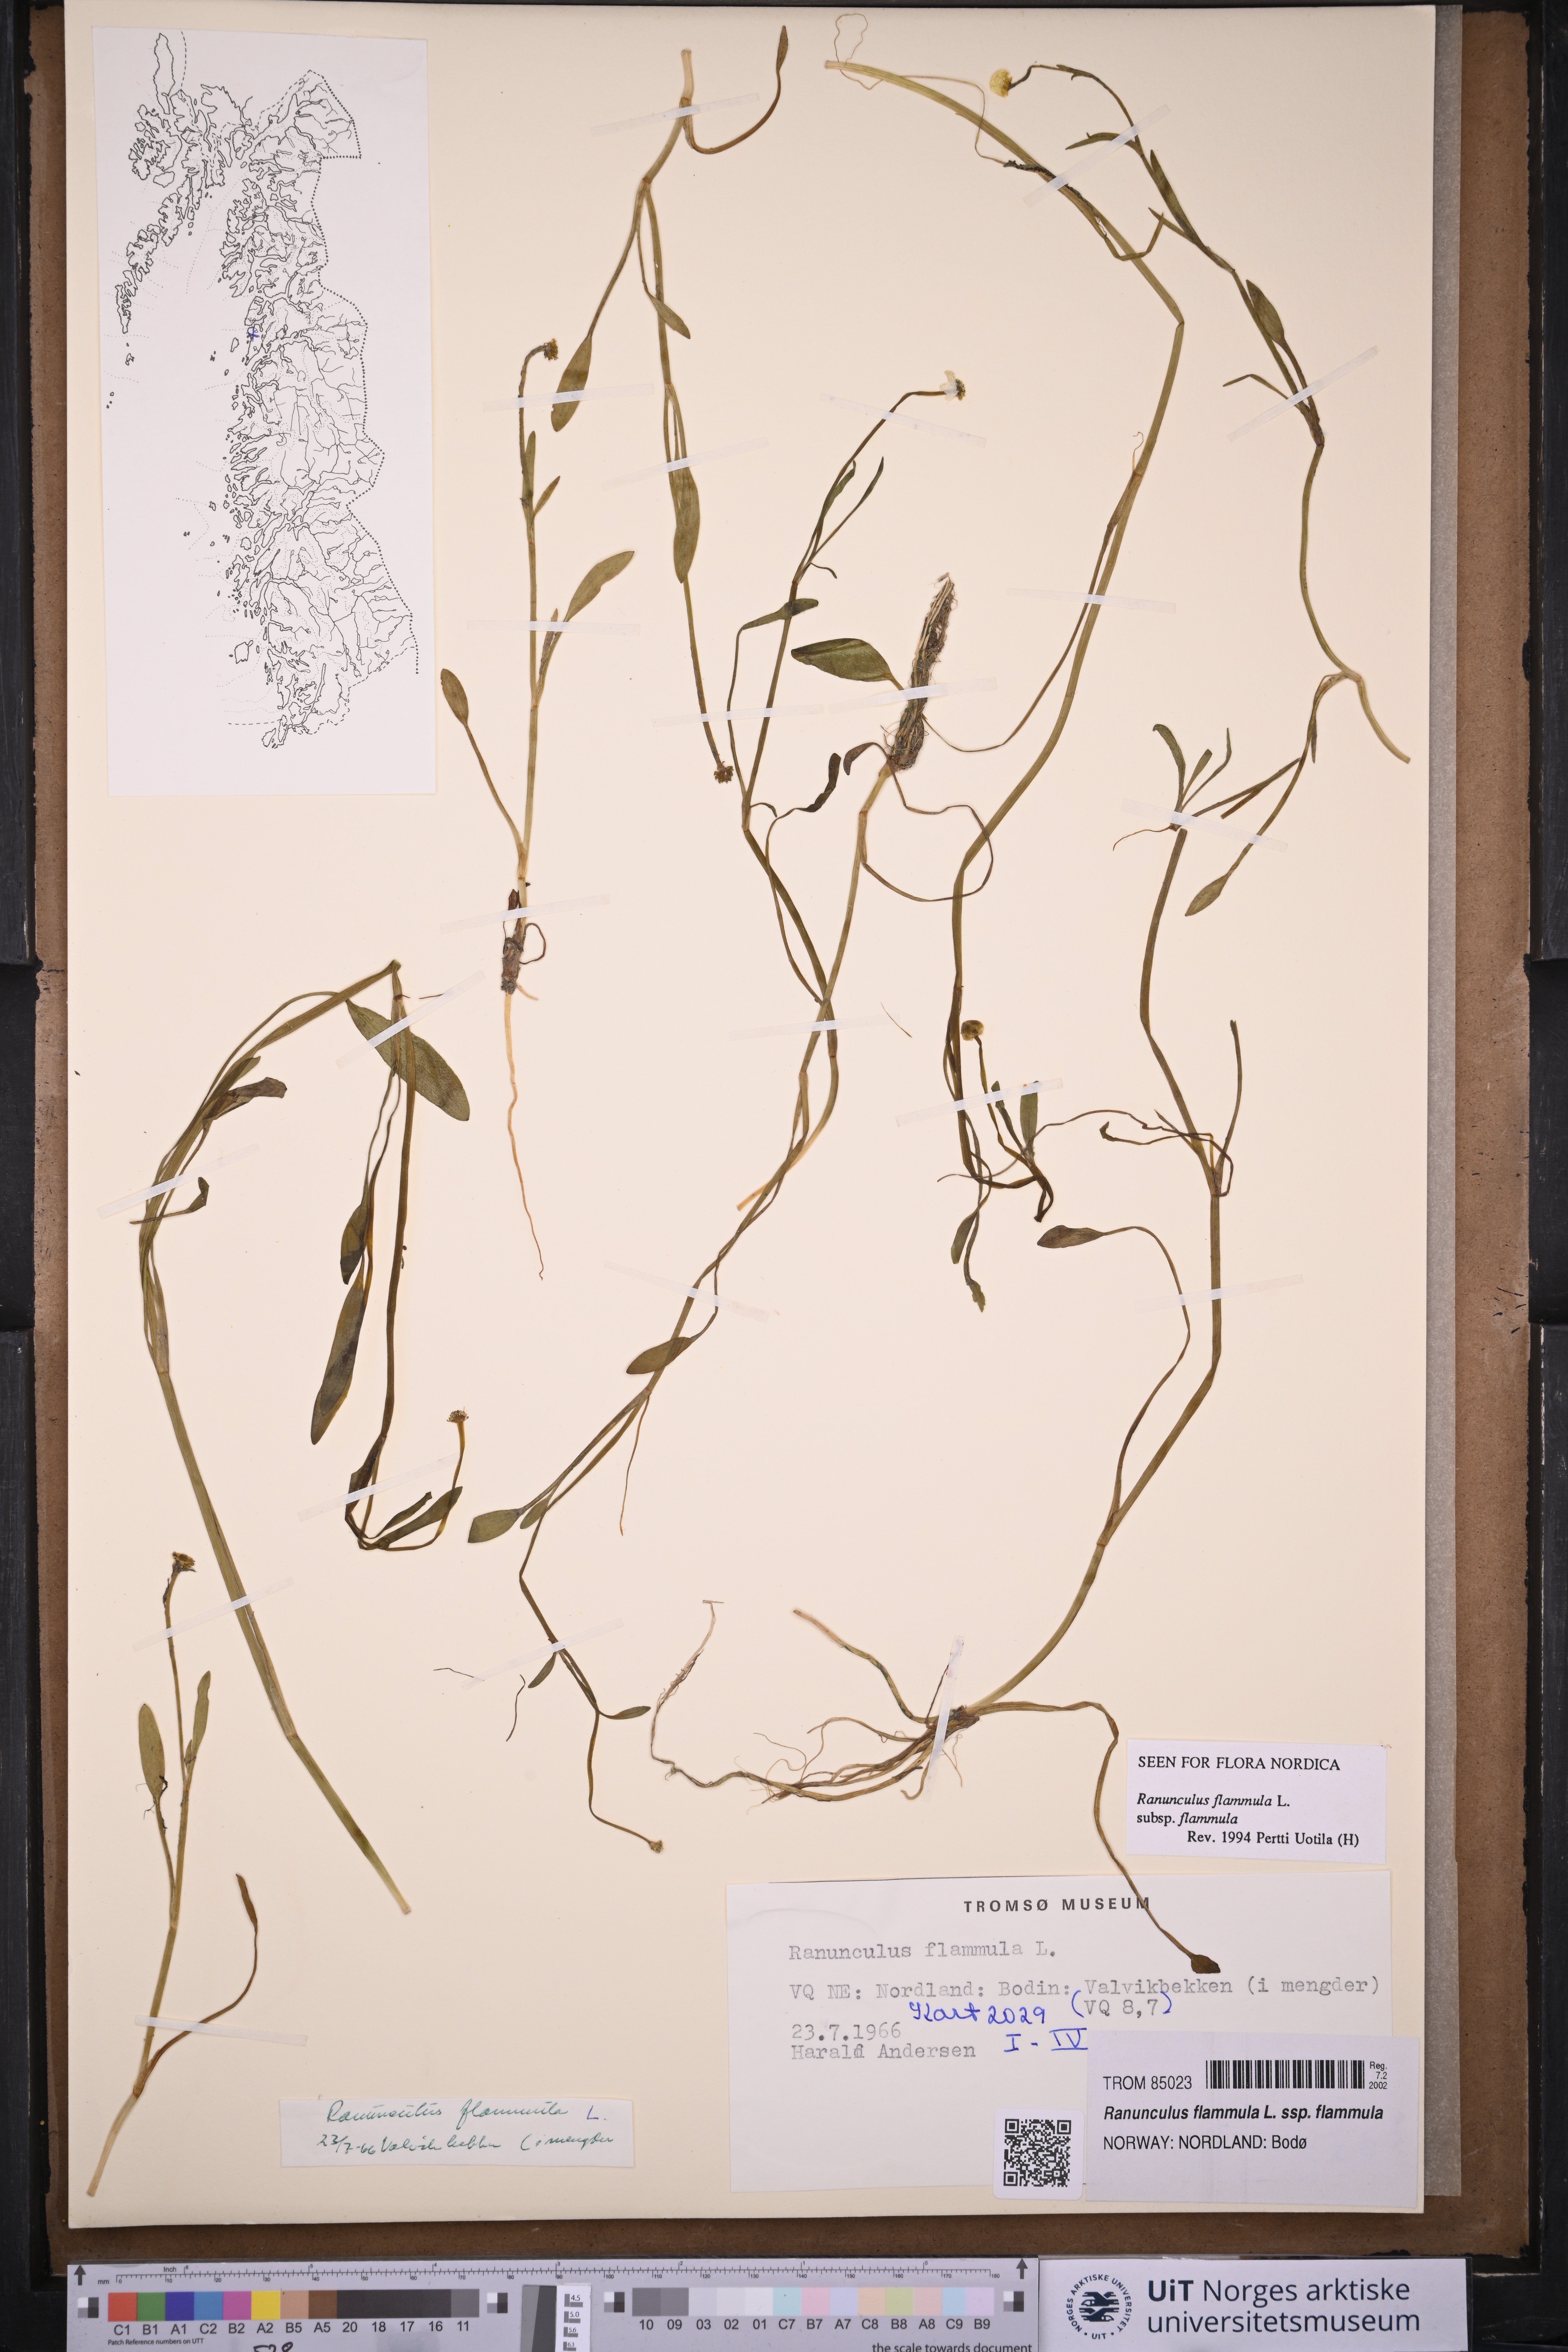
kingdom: Plantae
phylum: Tracheophyta
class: Magnoliopsida
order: Ranunculales
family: Ranunculaceae
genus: Ranunculus
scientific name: Ranunculus flammula
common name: Lesser spearwort
